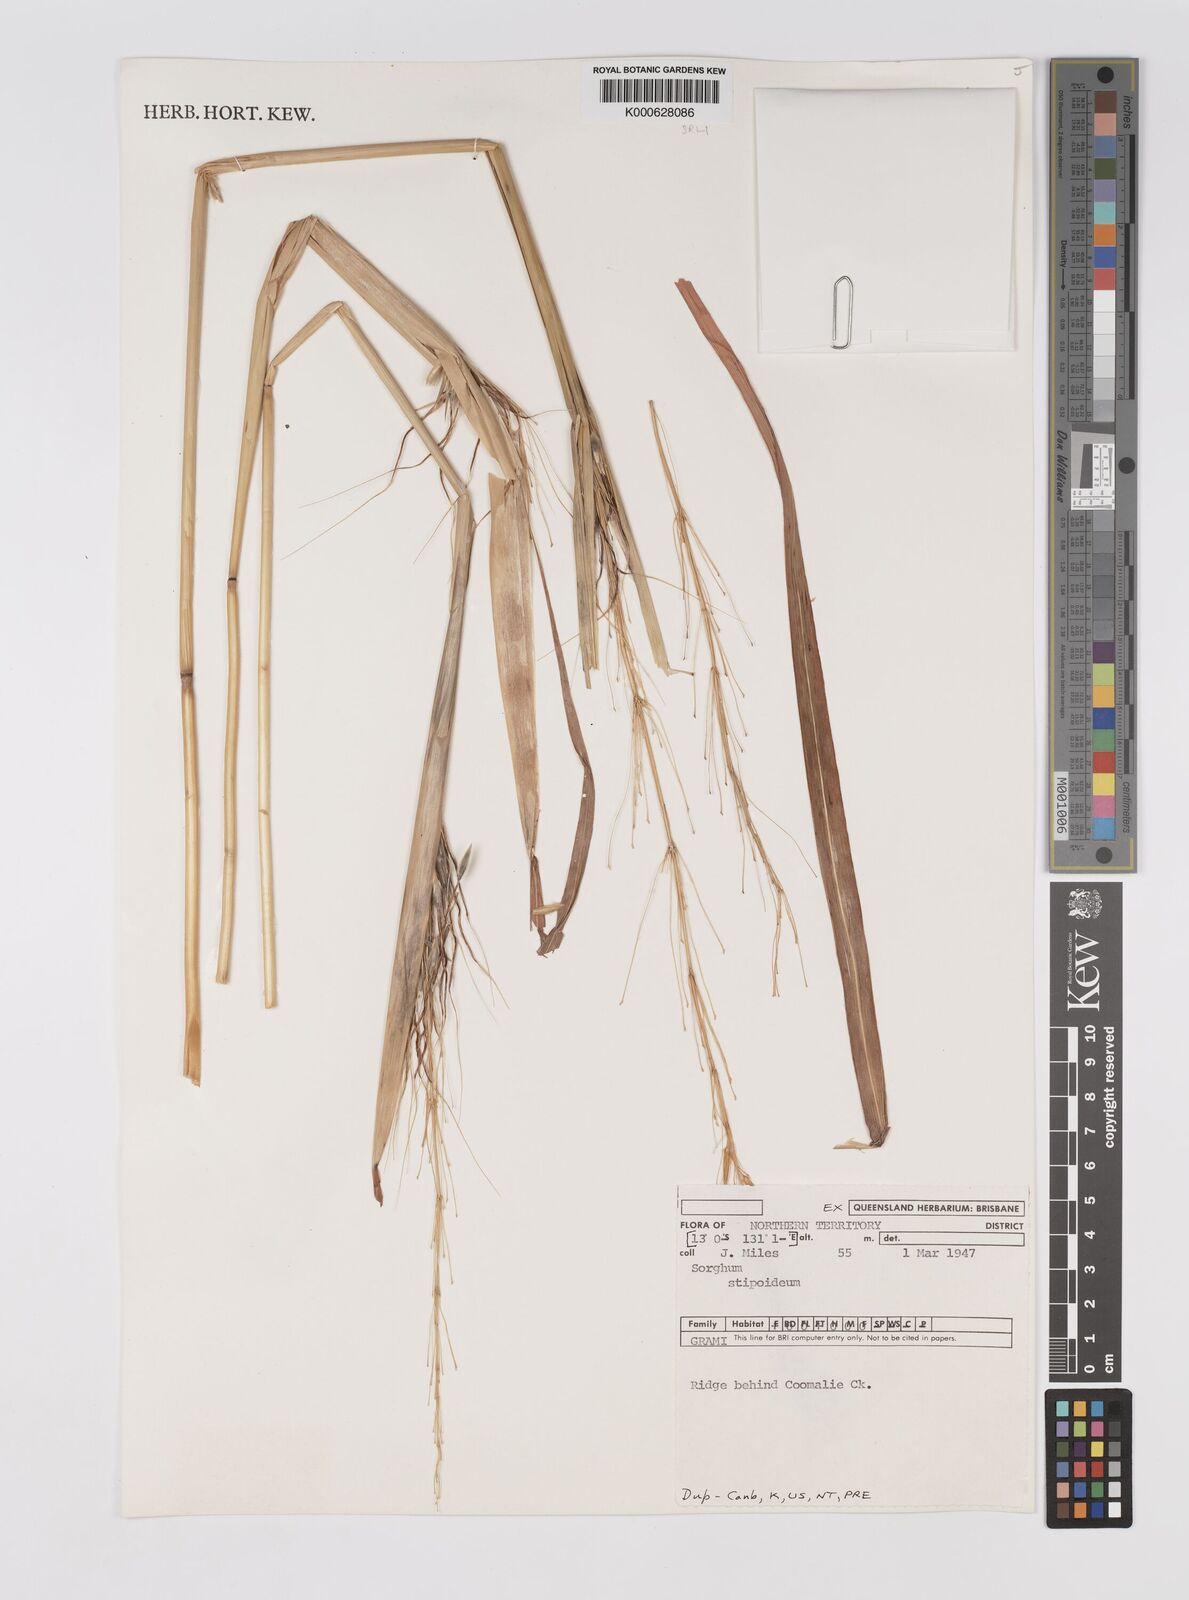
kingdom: Plantae
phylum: Tracheophyta
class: Liliopsida
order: Poales
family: Poaceae
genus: Sarga
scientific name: Sarga stipoidea
